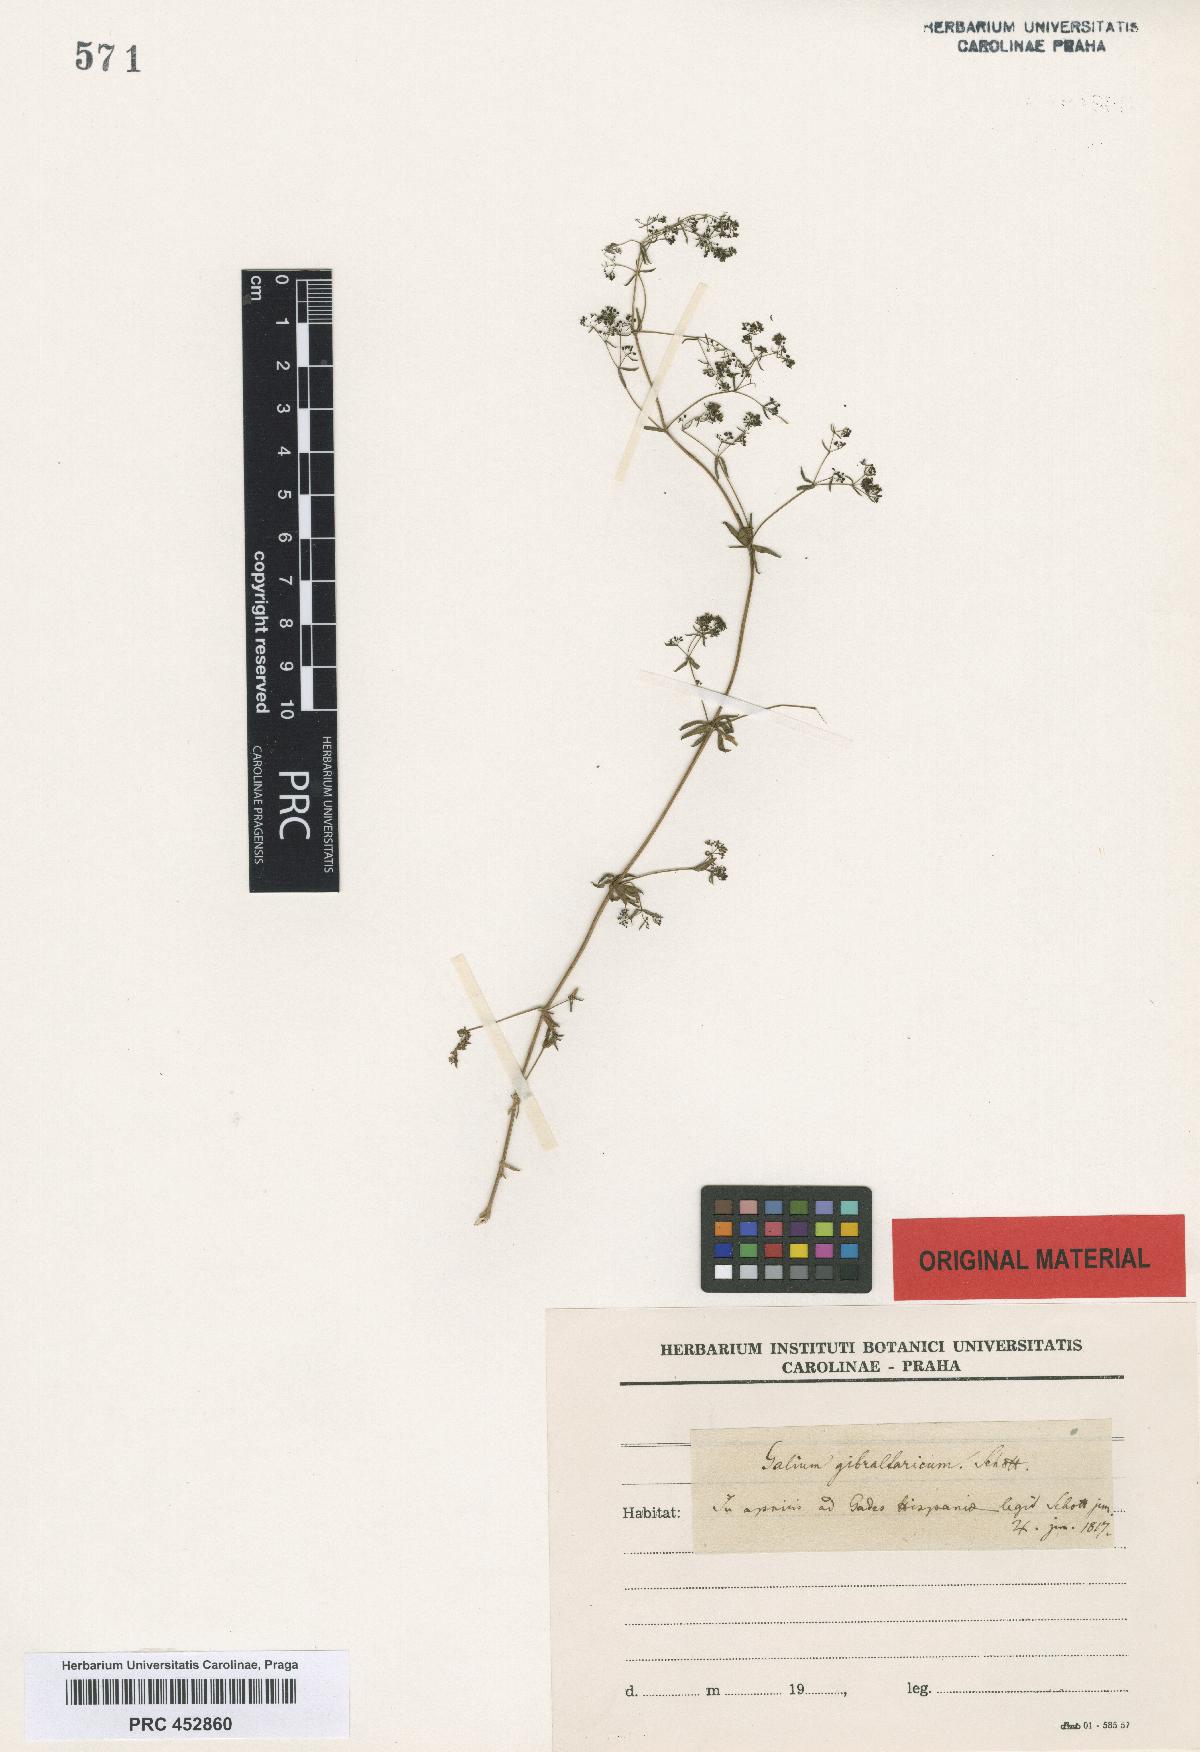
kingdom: Plantae
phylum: Tracheophyta
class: Magnoliopsida
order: Gentianales
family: Rubiaceae
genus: Galium
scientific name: Galium viscosum
